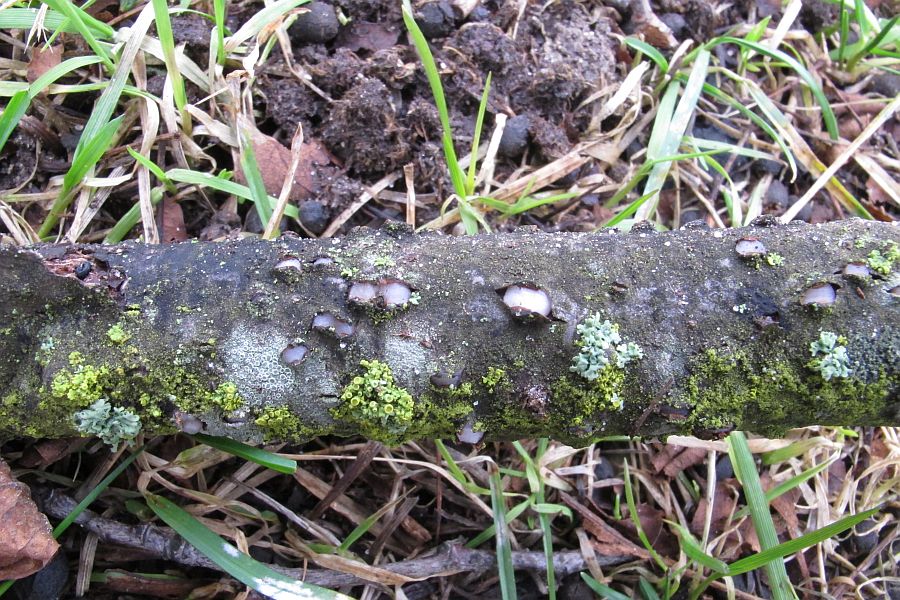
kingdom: Fungi
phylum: Basidiomycota
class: Pucciniomycetes
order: Platygloeales
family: Platygloeaceae
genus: Platygloea
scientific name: Platygloea disciformis
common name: linde-slimklat
